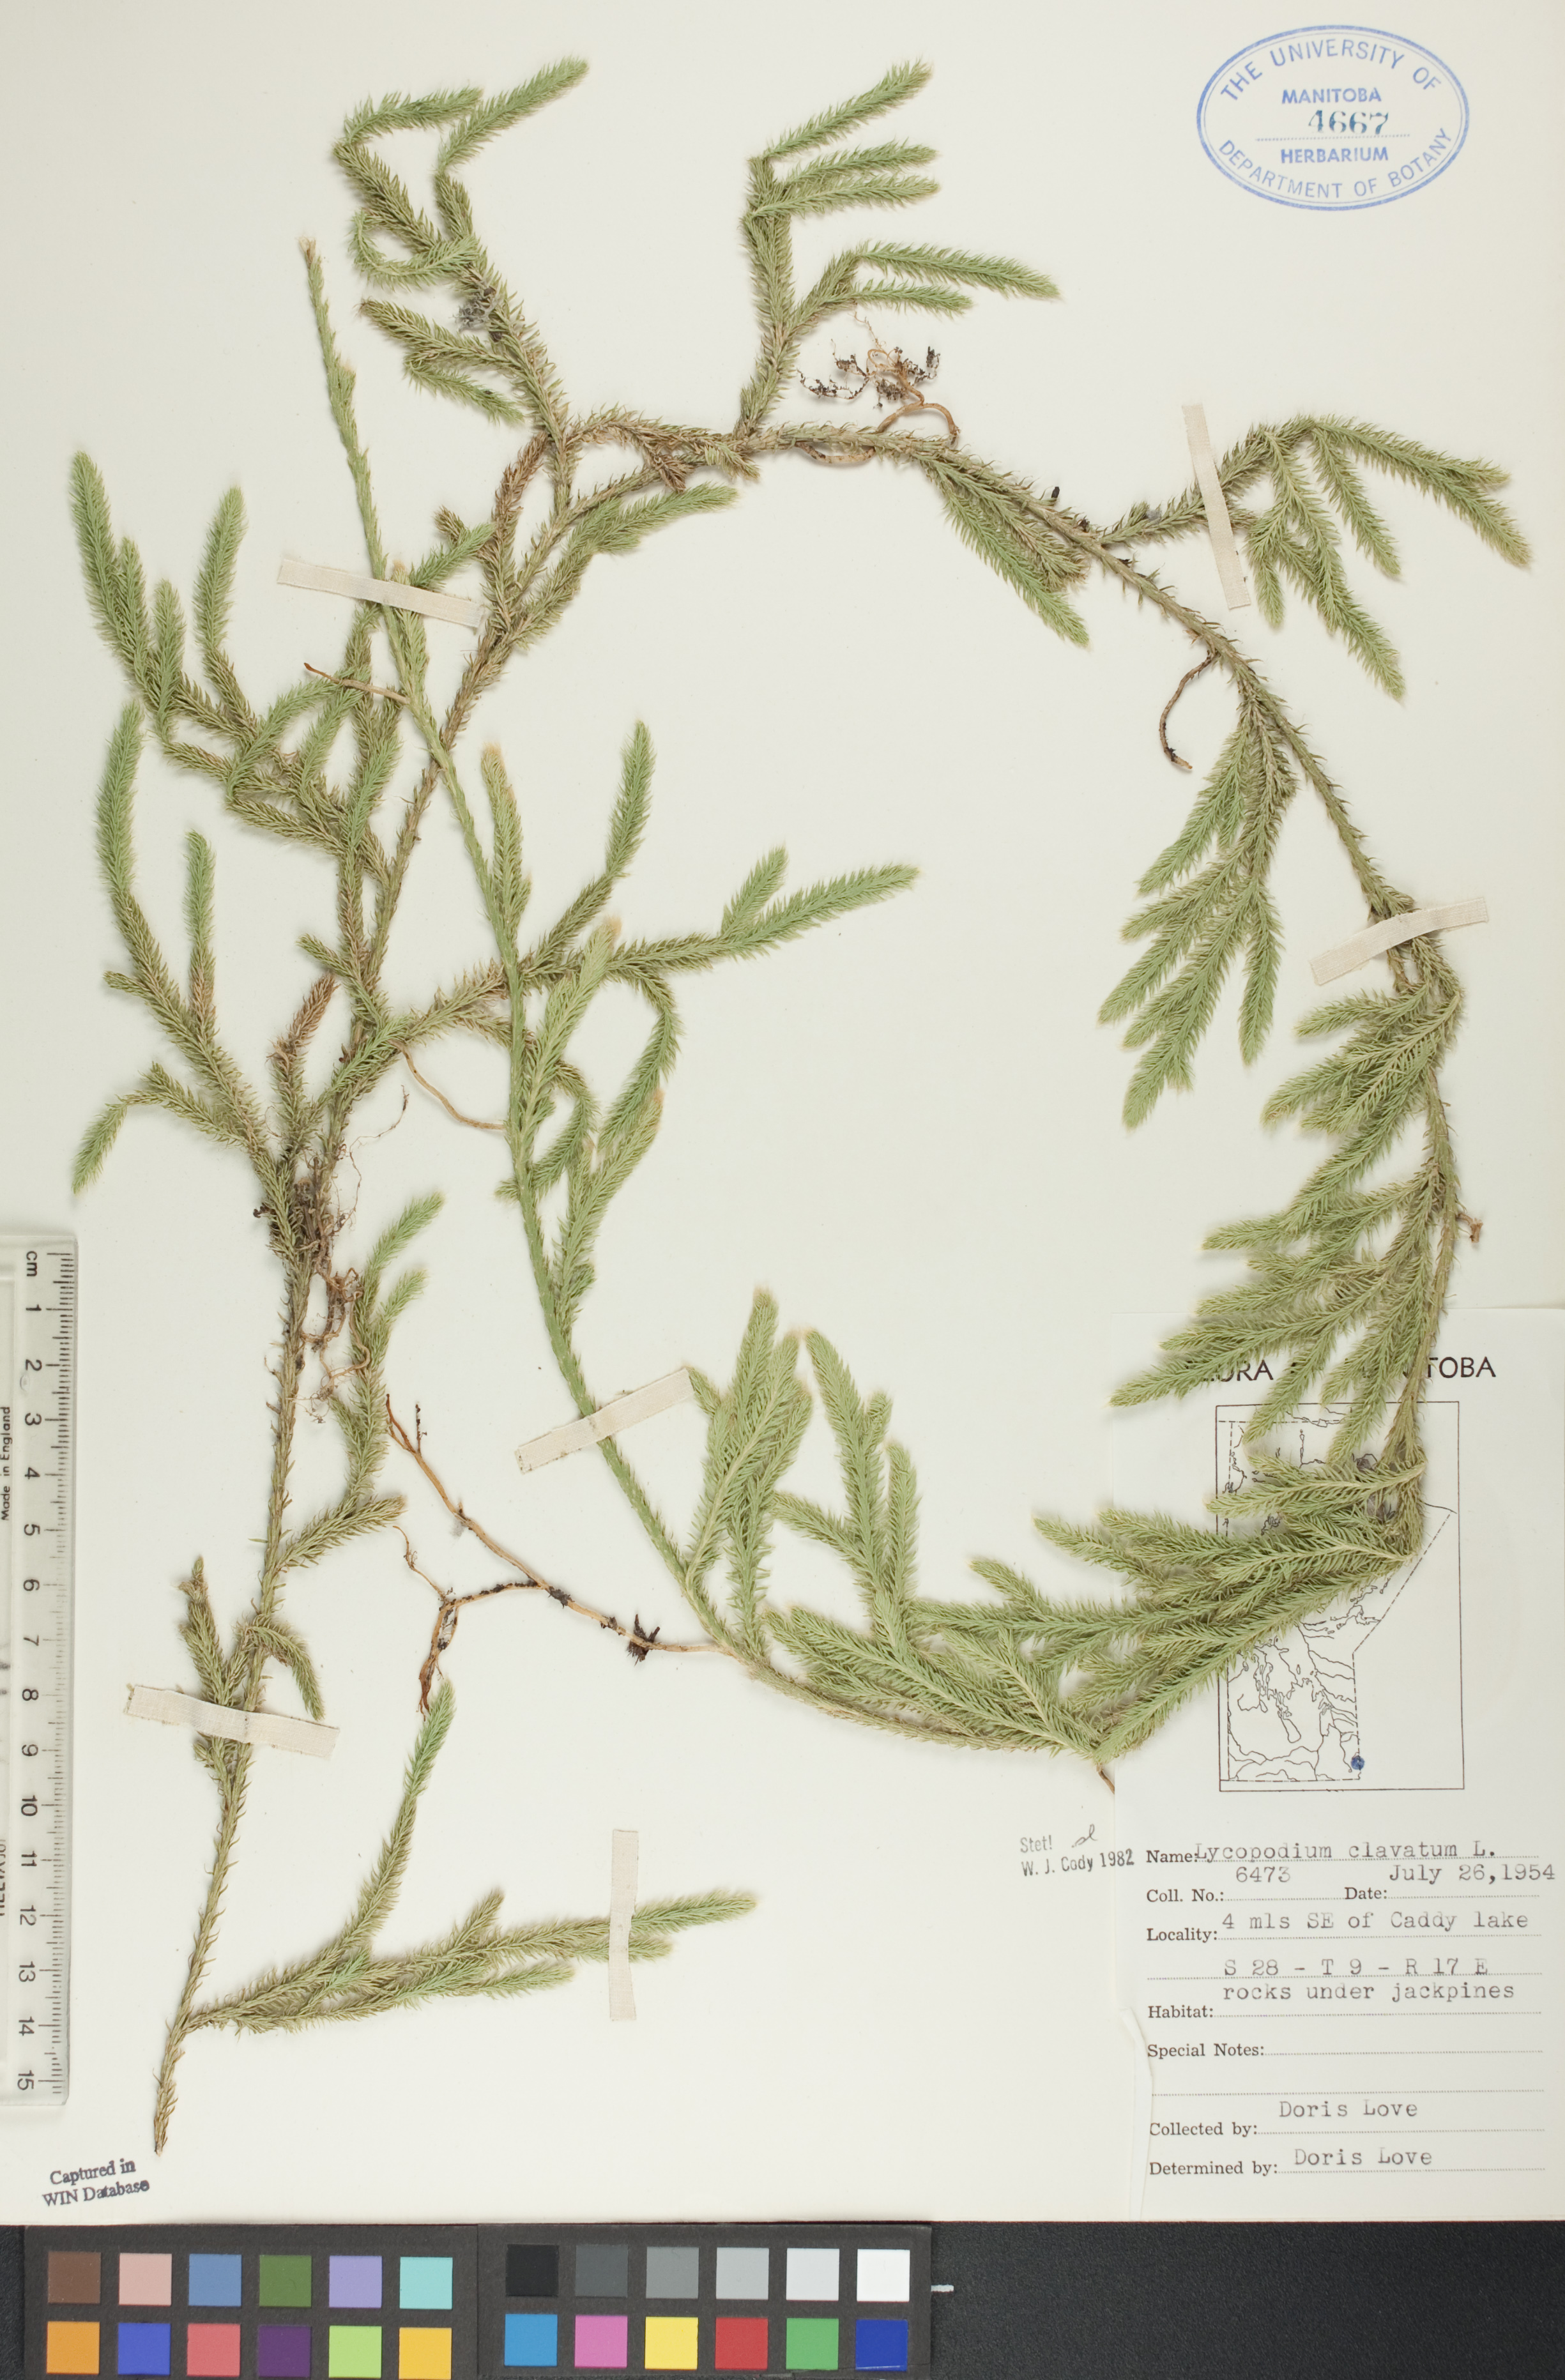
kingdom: Plantae
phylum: Tracheophyta
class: Lycopodiopsida
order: Lycopodiales
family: Lycopodiaceae
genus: Lycopodium
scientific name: Lycopodium clavatum
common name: Stag's-horn clubmoss
